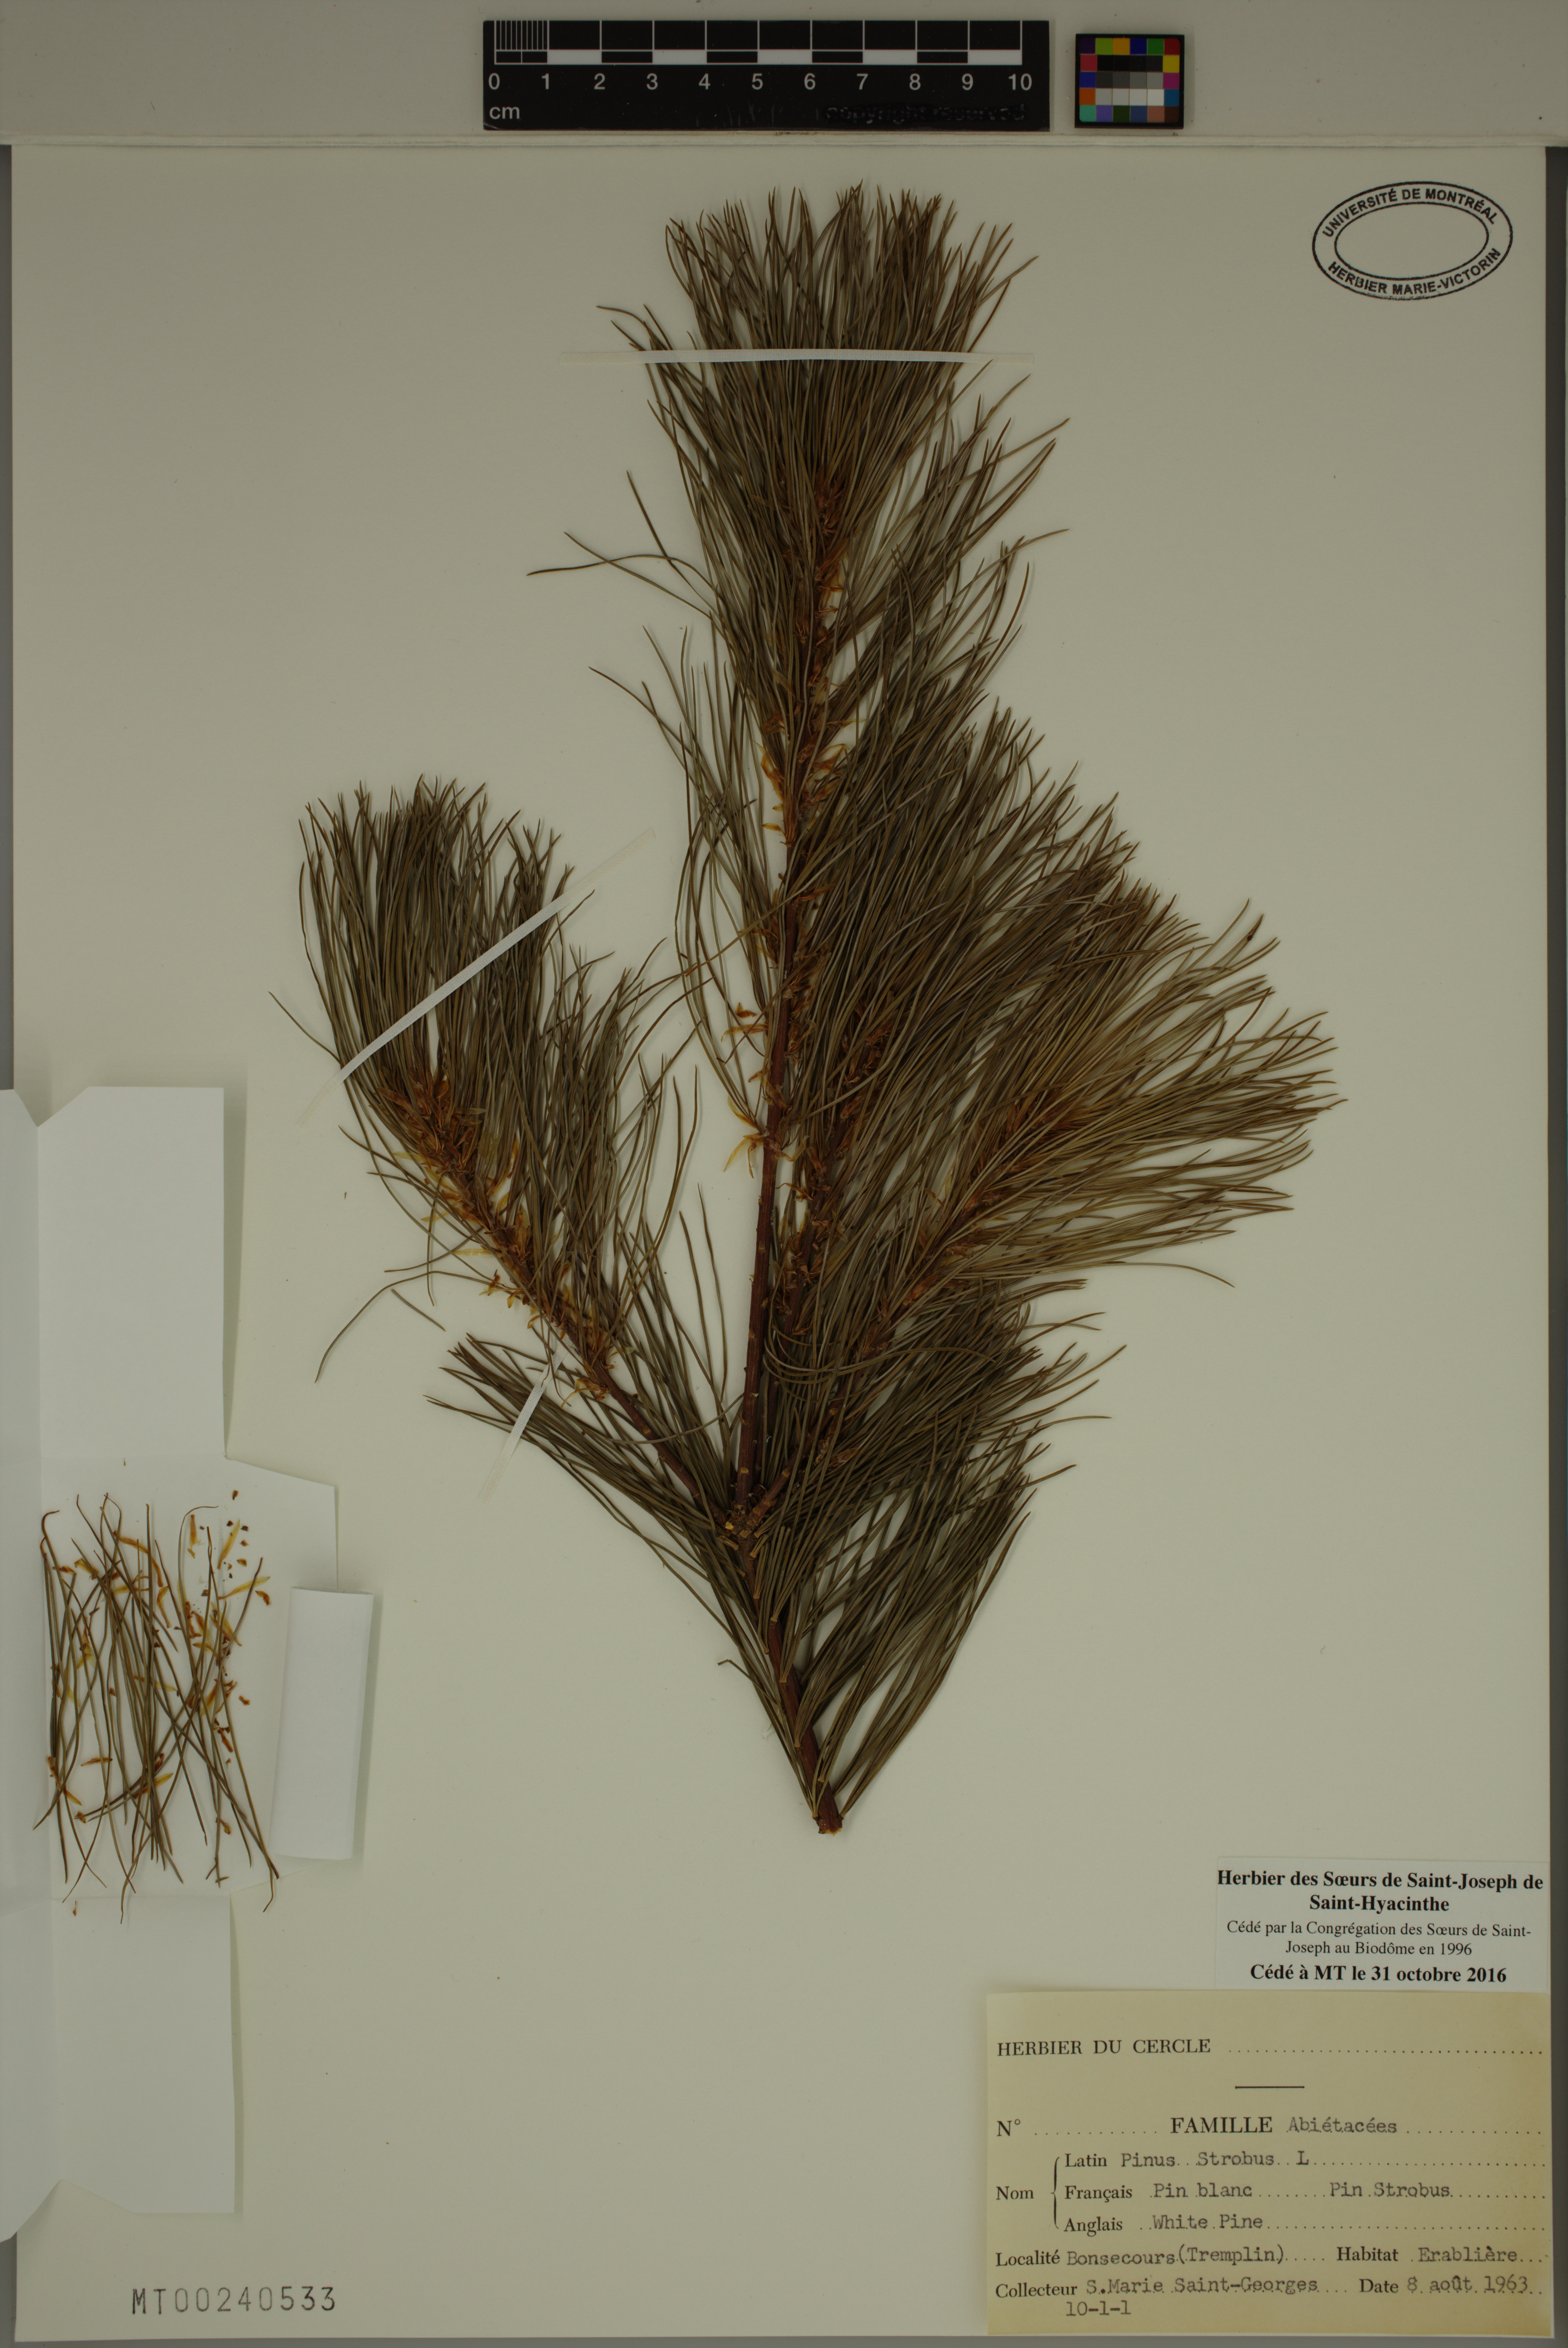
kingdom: Plantae
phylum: Tracheophyta
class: Pinopsida
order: Pinales
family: Pinaceae
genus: Pinus
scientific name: Pinus strobus
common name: Weymouth pine
